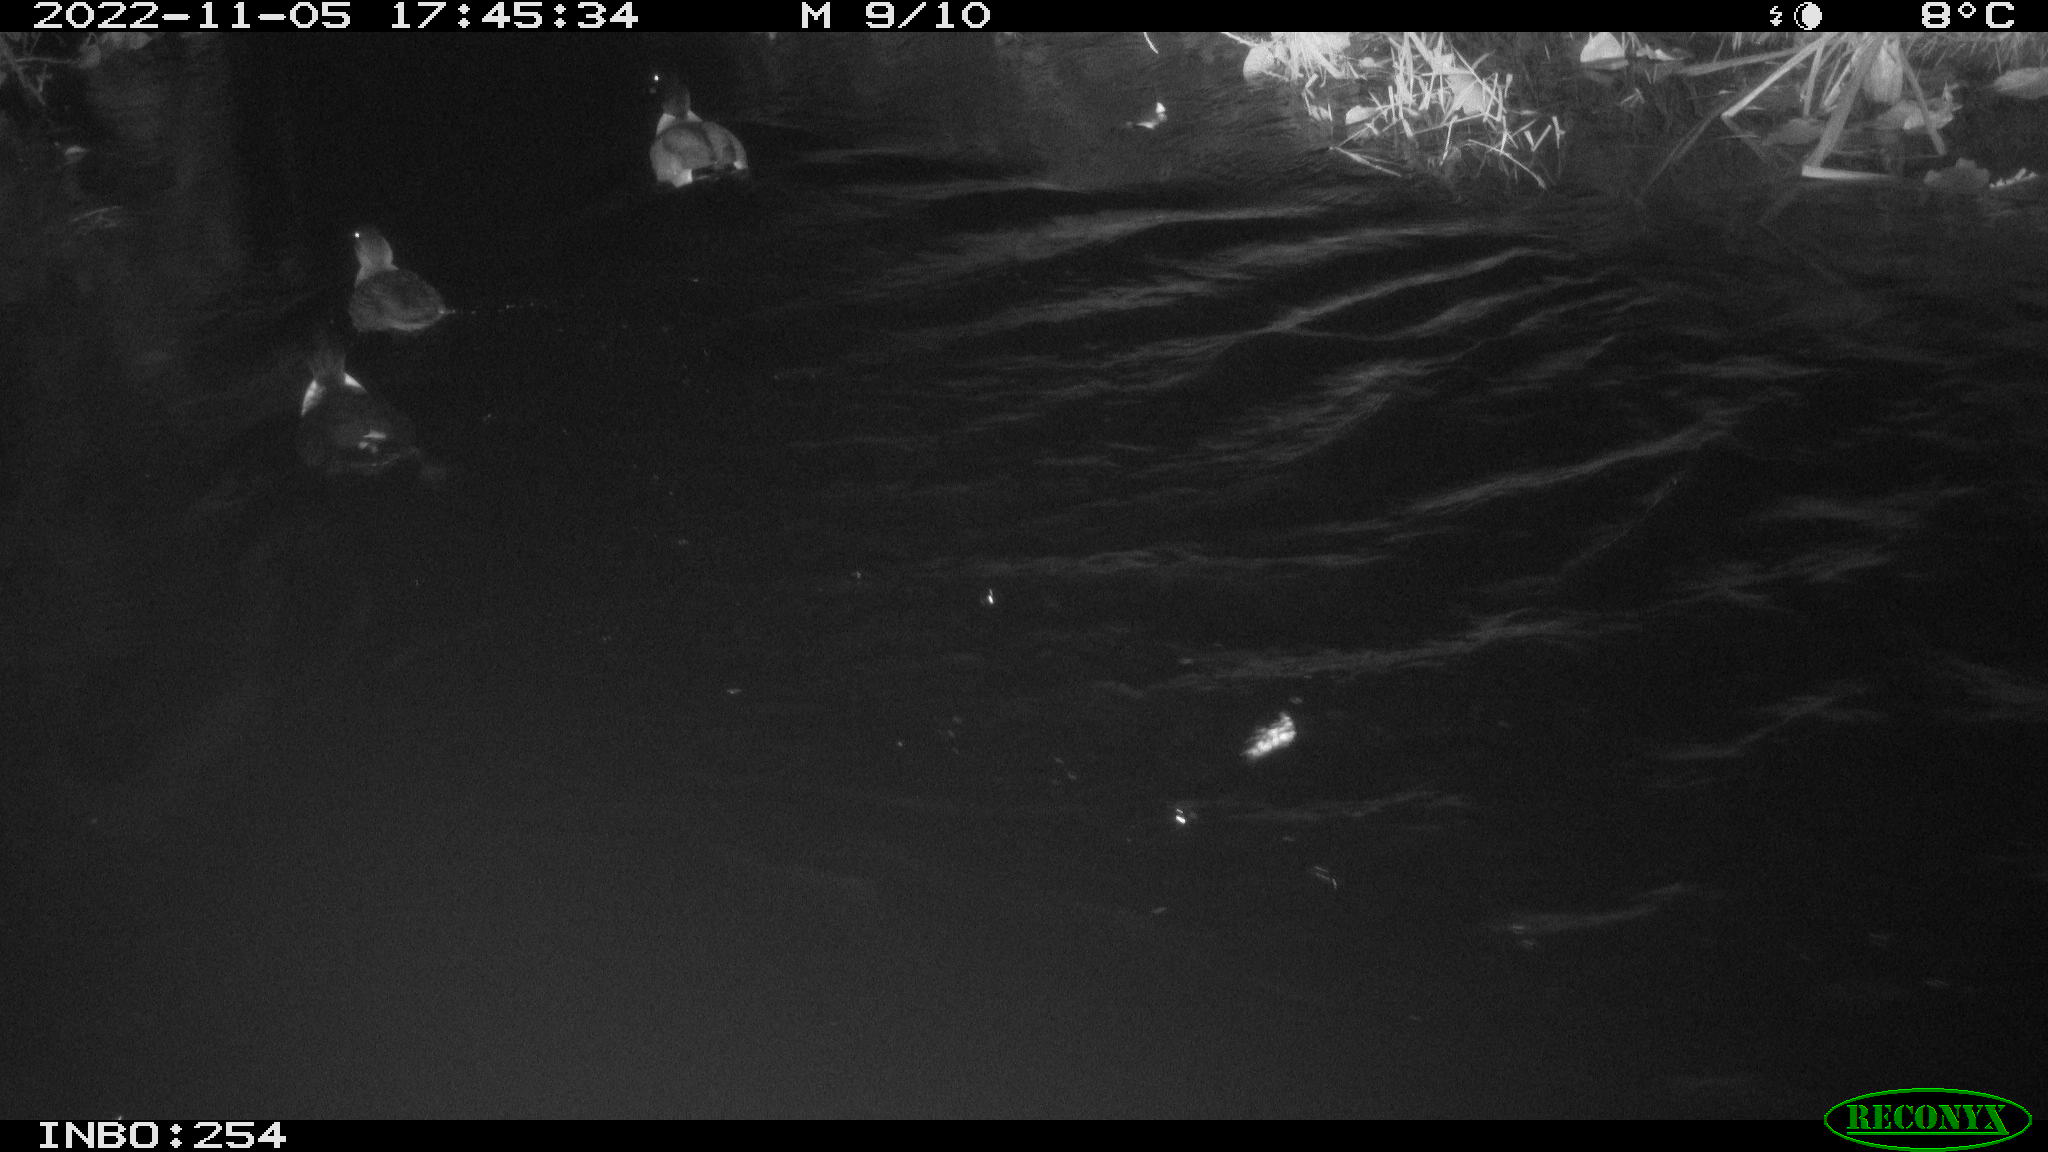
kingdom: Animalia
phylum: Chordata
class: Aves
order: Anseriformes
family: Anatidae
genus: Anas
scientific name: Anas
